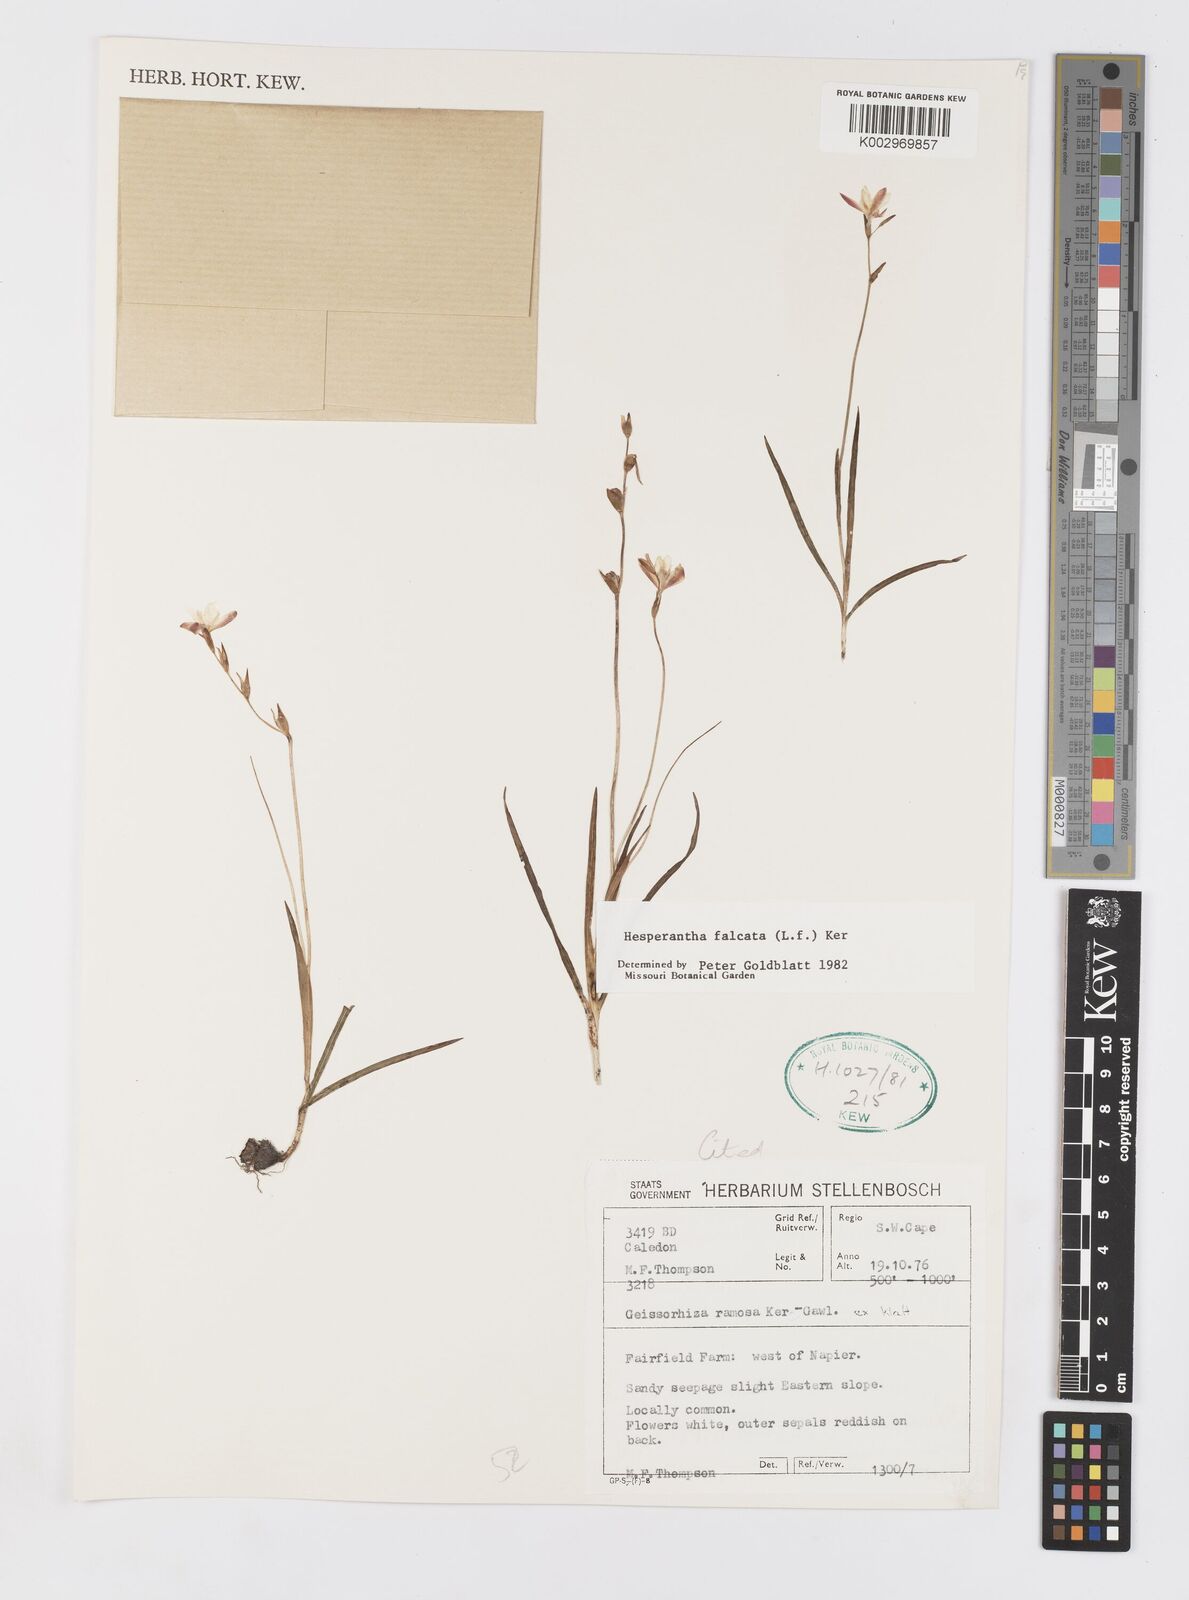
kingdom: Plantae
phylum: Tracheophyta
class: Liliopsida
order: Asparagales
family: Iridaceae
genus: Hesperantha
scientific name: Hesperantha falcata
